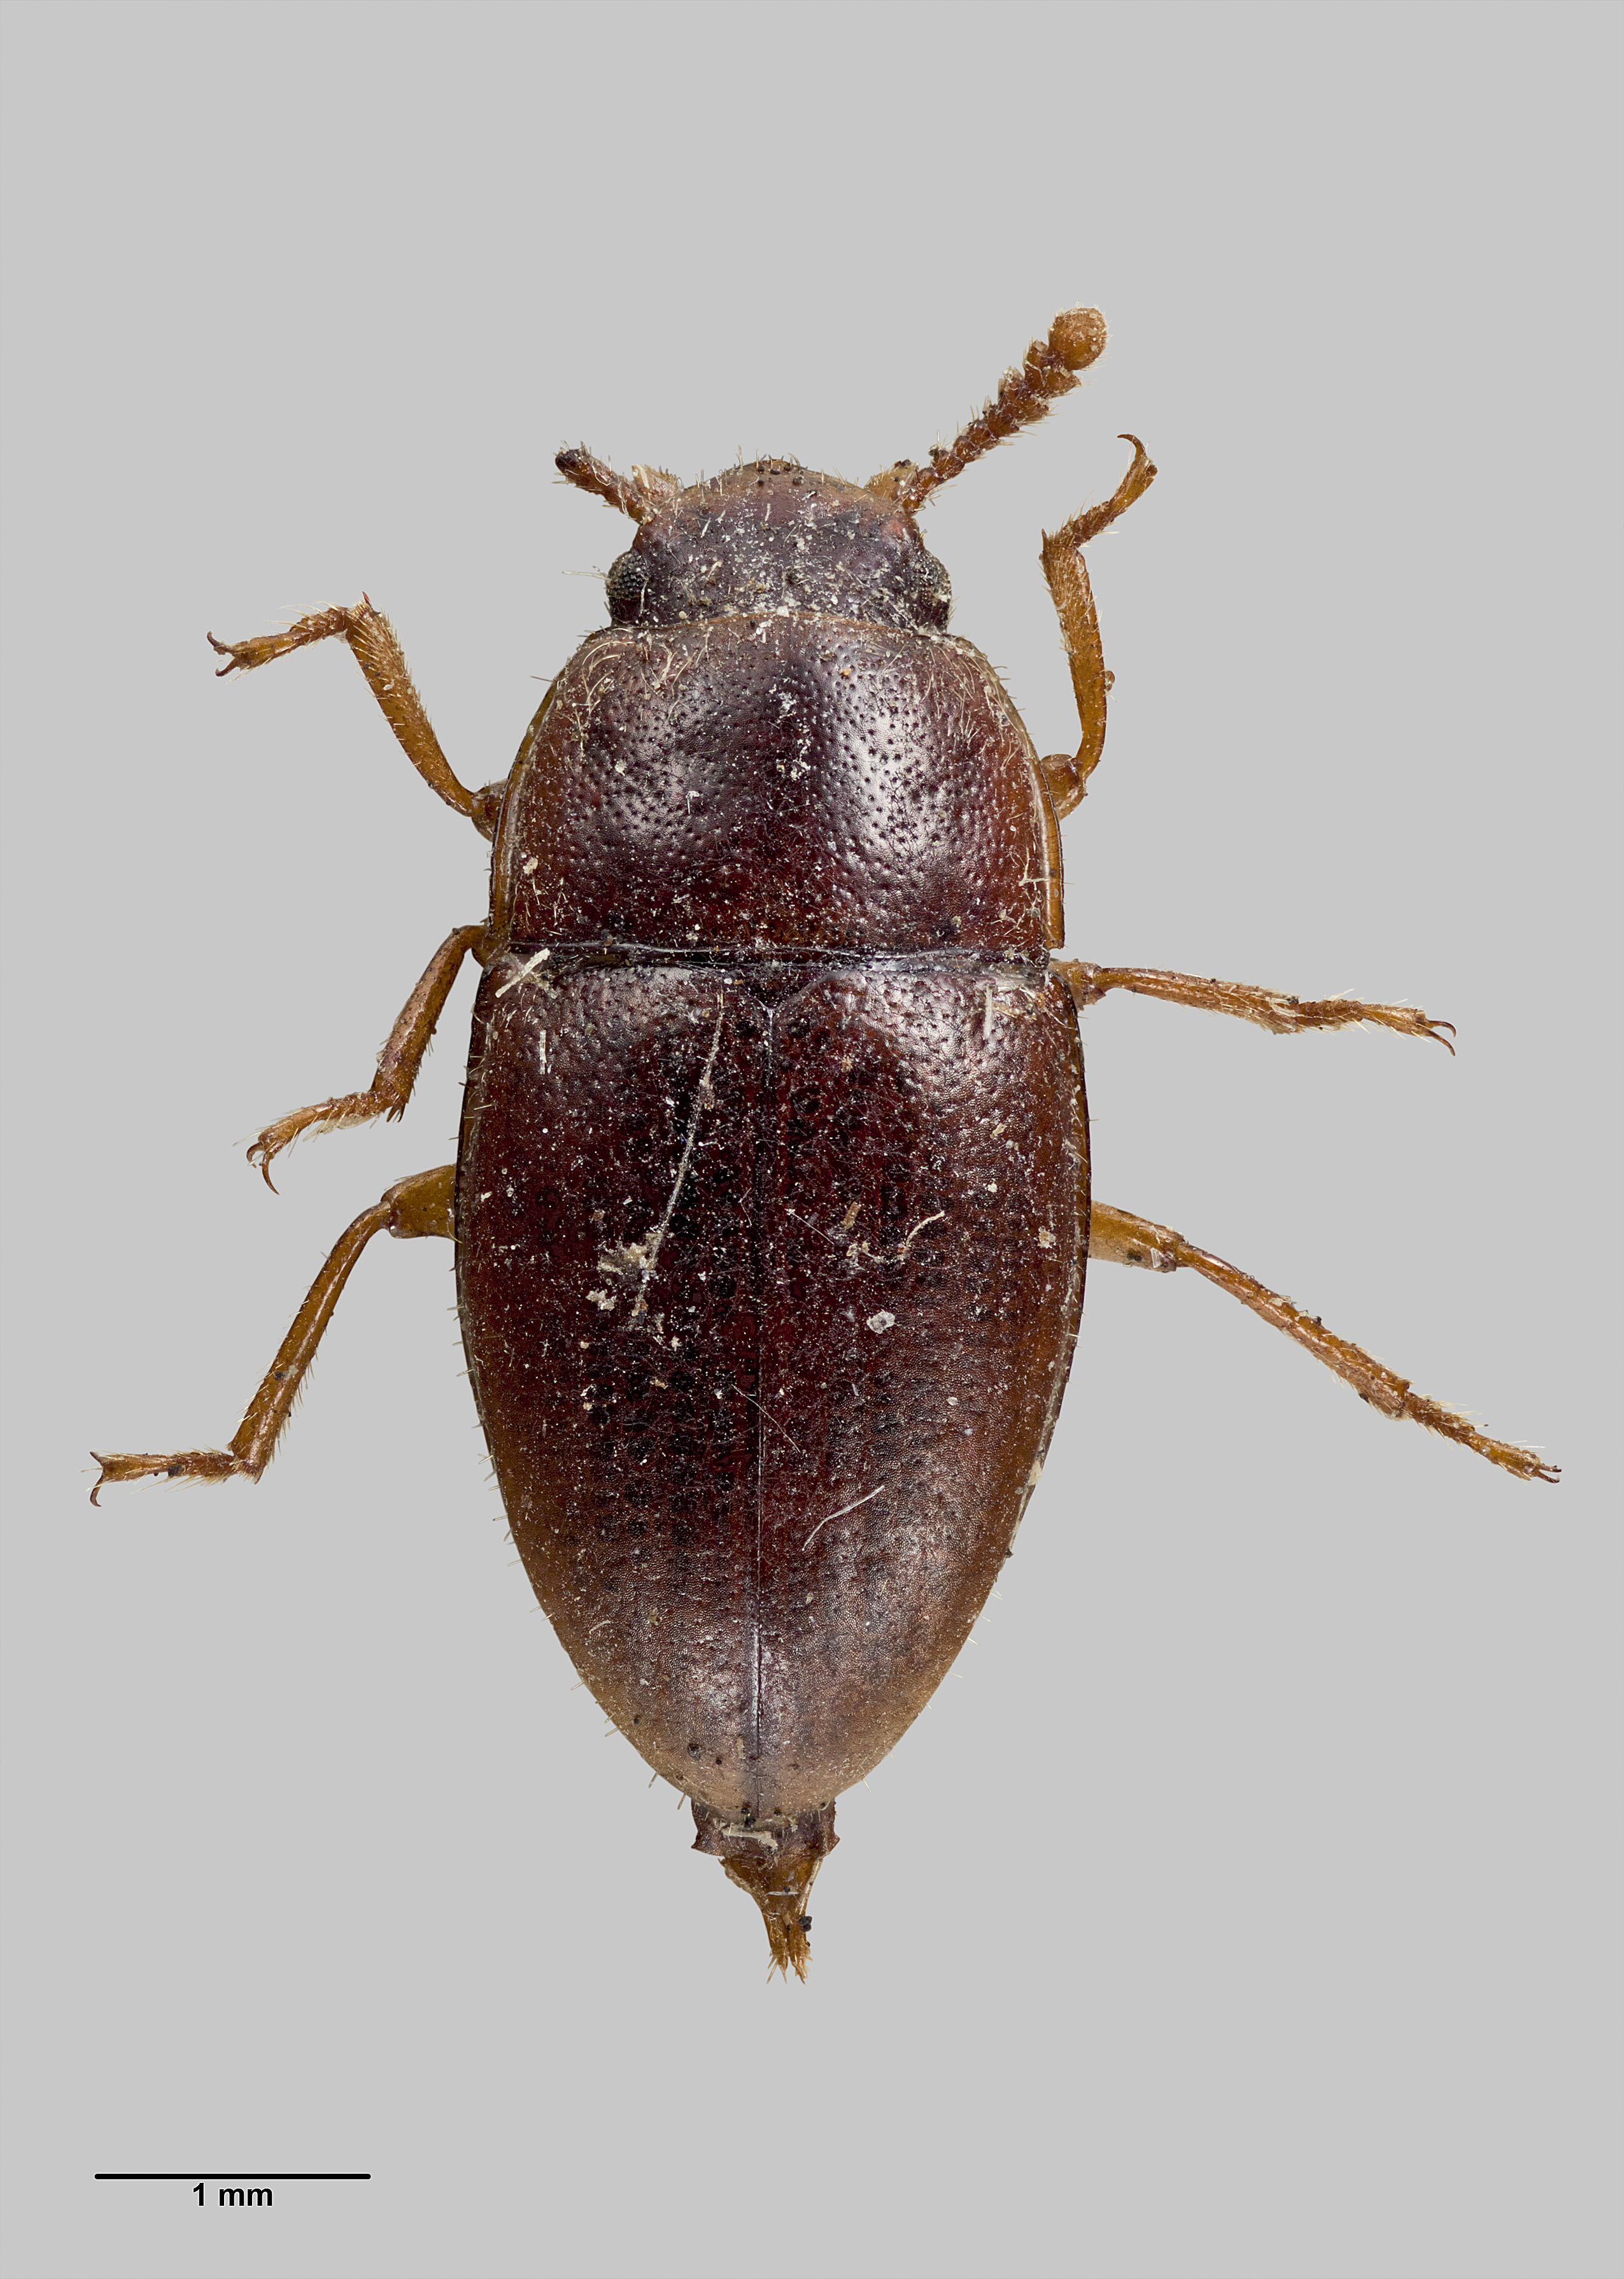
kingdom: Animalia
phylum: Arthropoda
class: Insecta
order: Coleoptera
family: Tenebrionidae
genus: Menimus
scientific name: Menimus
